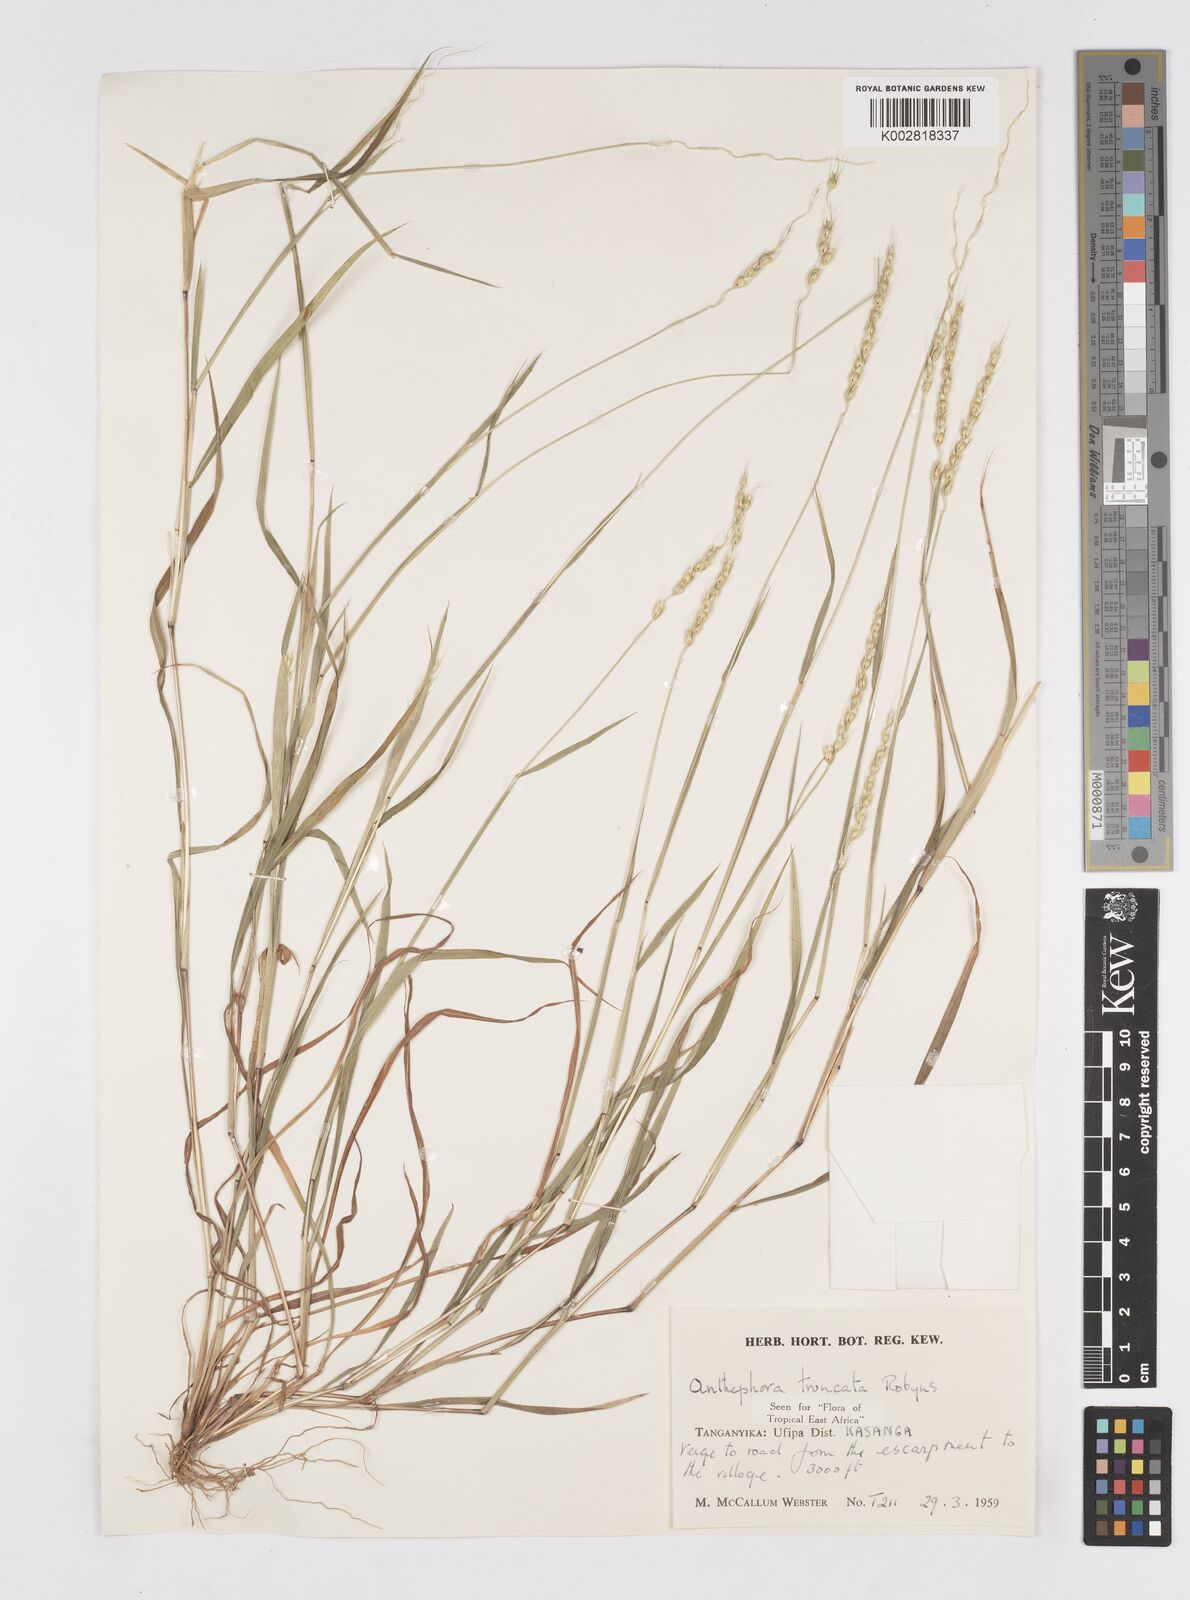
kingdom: Plantae
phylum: Tracheophyta
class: Liliopsida
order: Poales
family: Poaceae
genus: Anthephora
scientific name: Anthephora truncata
